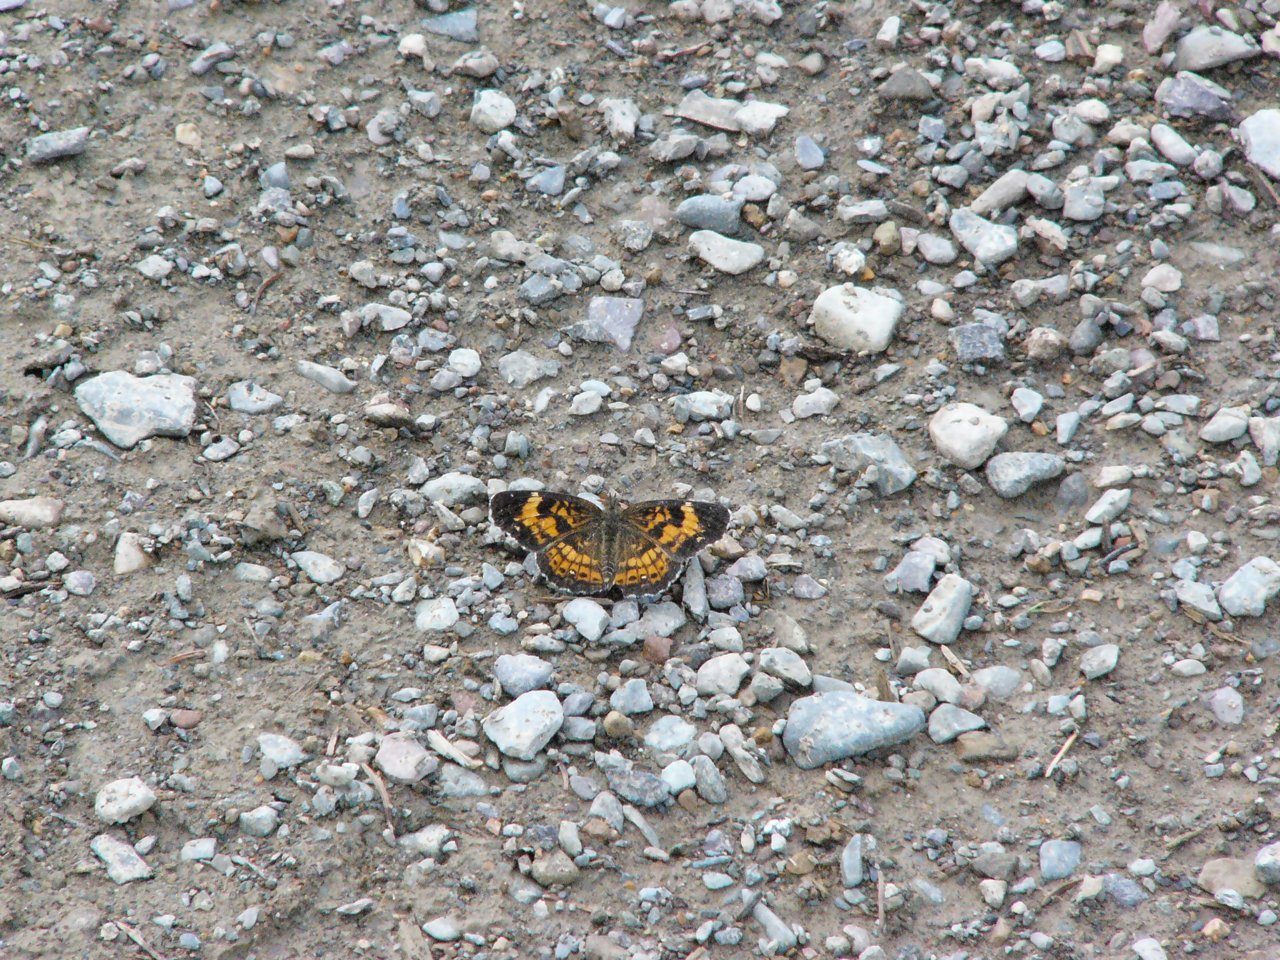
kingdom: Animalia
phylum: Arthropoda
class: Insecta
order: Lepidoptera
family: Nymphalidae
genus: Chlosyne
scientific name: Chlosyne nycteis
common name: Silvery Checkerspot
